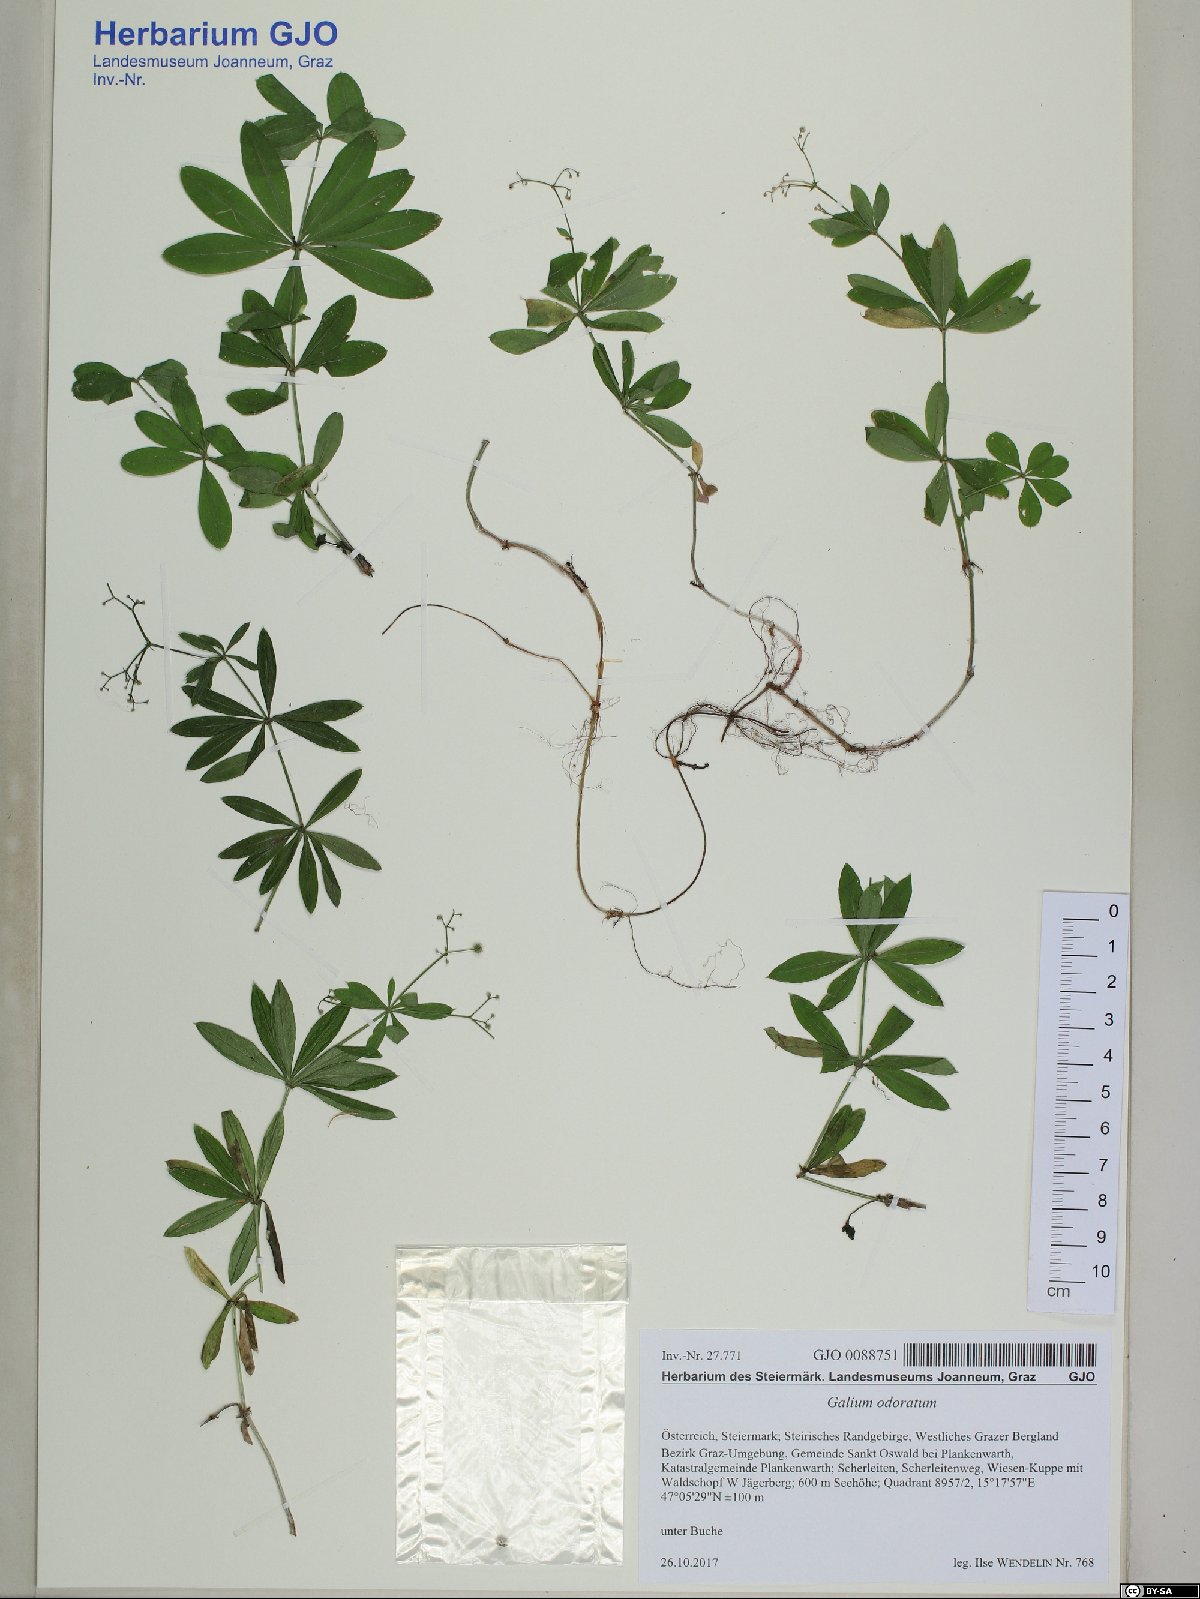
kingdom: Plantae
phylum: Tracheophyta
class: Magnoliopsida
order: Gentianales
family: Rubiaceae
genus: Galium
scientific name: Galium odoratum
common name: Sweet woodruff
